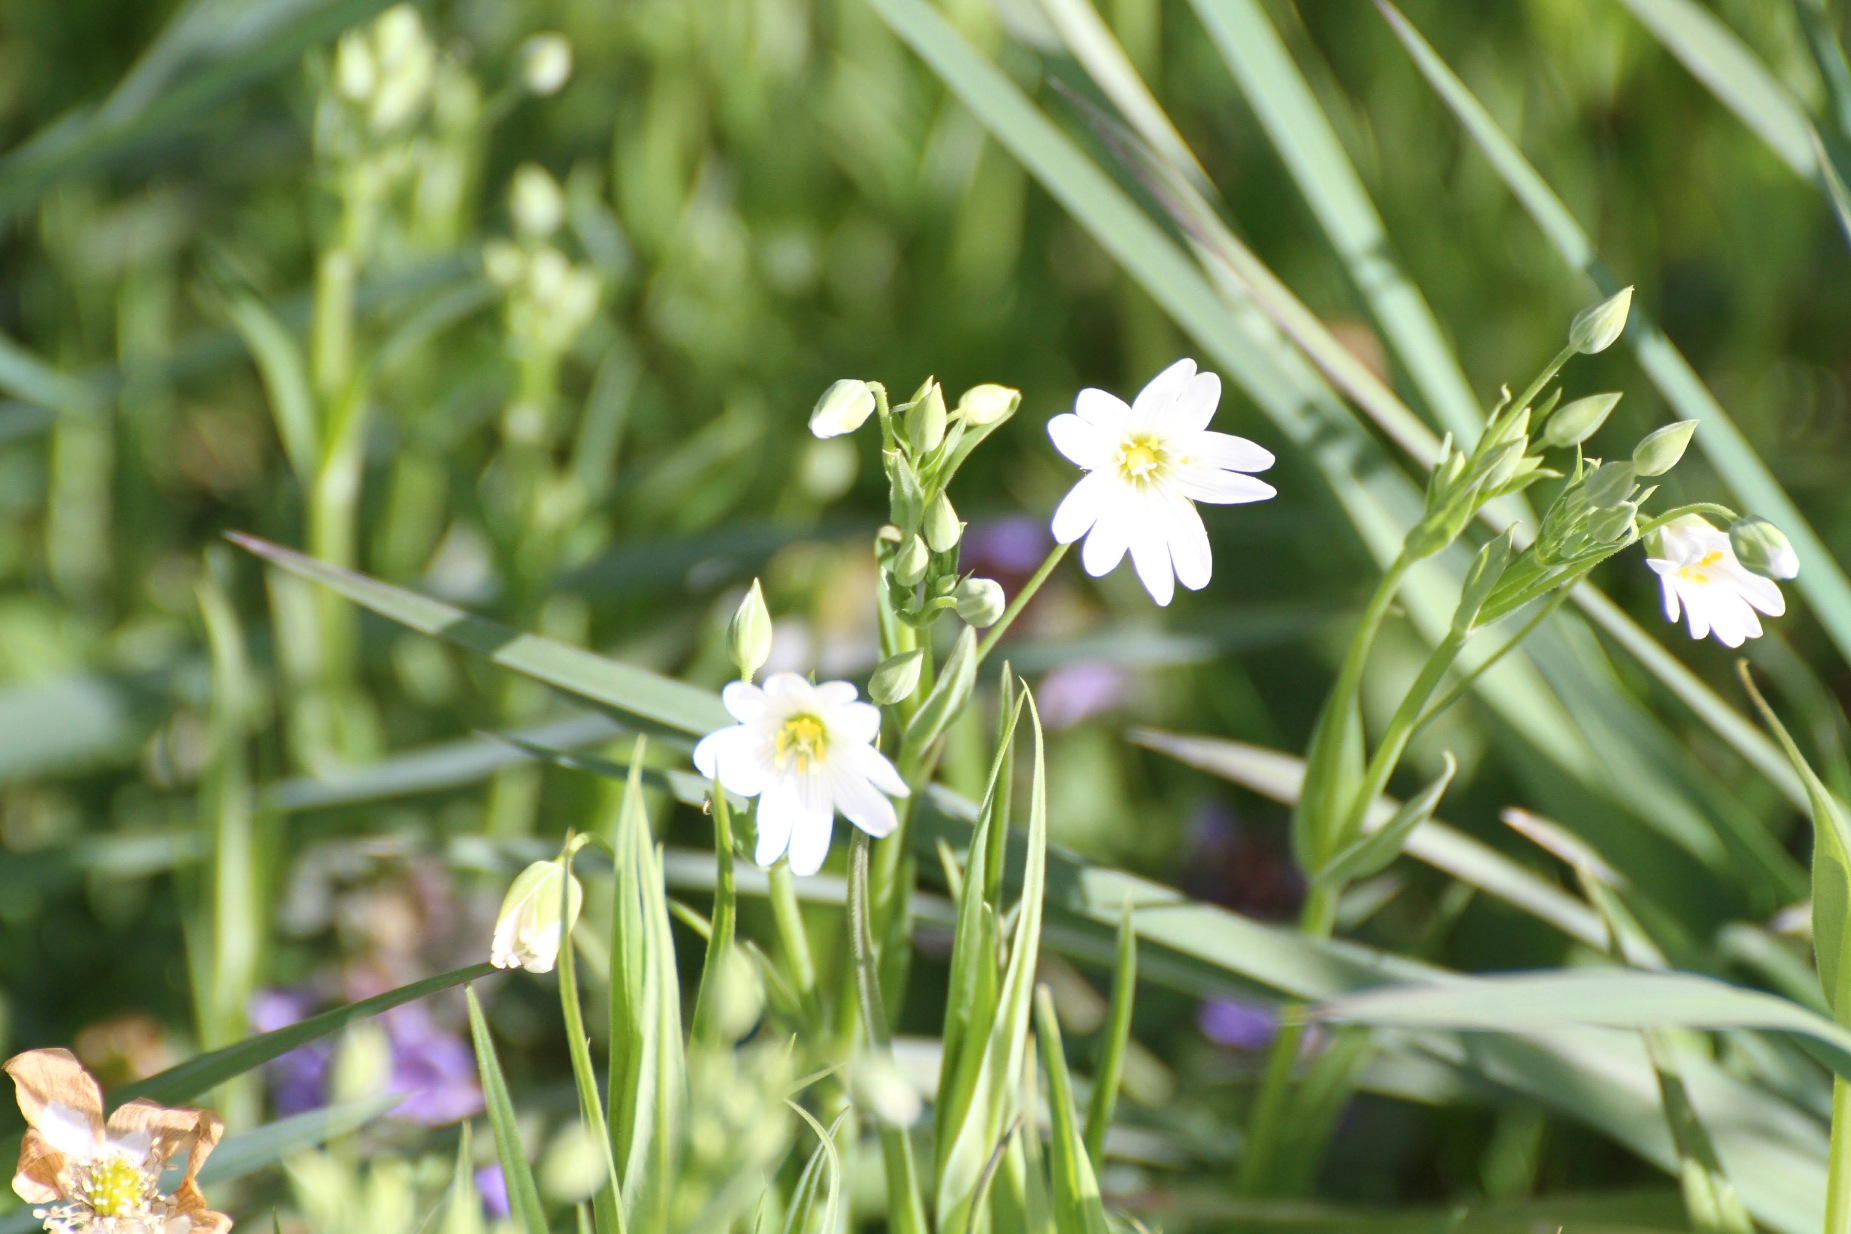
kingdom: Plantae
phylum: Tracheophyta
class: Magnoliopsida
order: Caryophyllales
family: Caryophyllaceae
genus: Rabelera
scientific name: Rabelera holostea
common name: Stor fladstjerne
